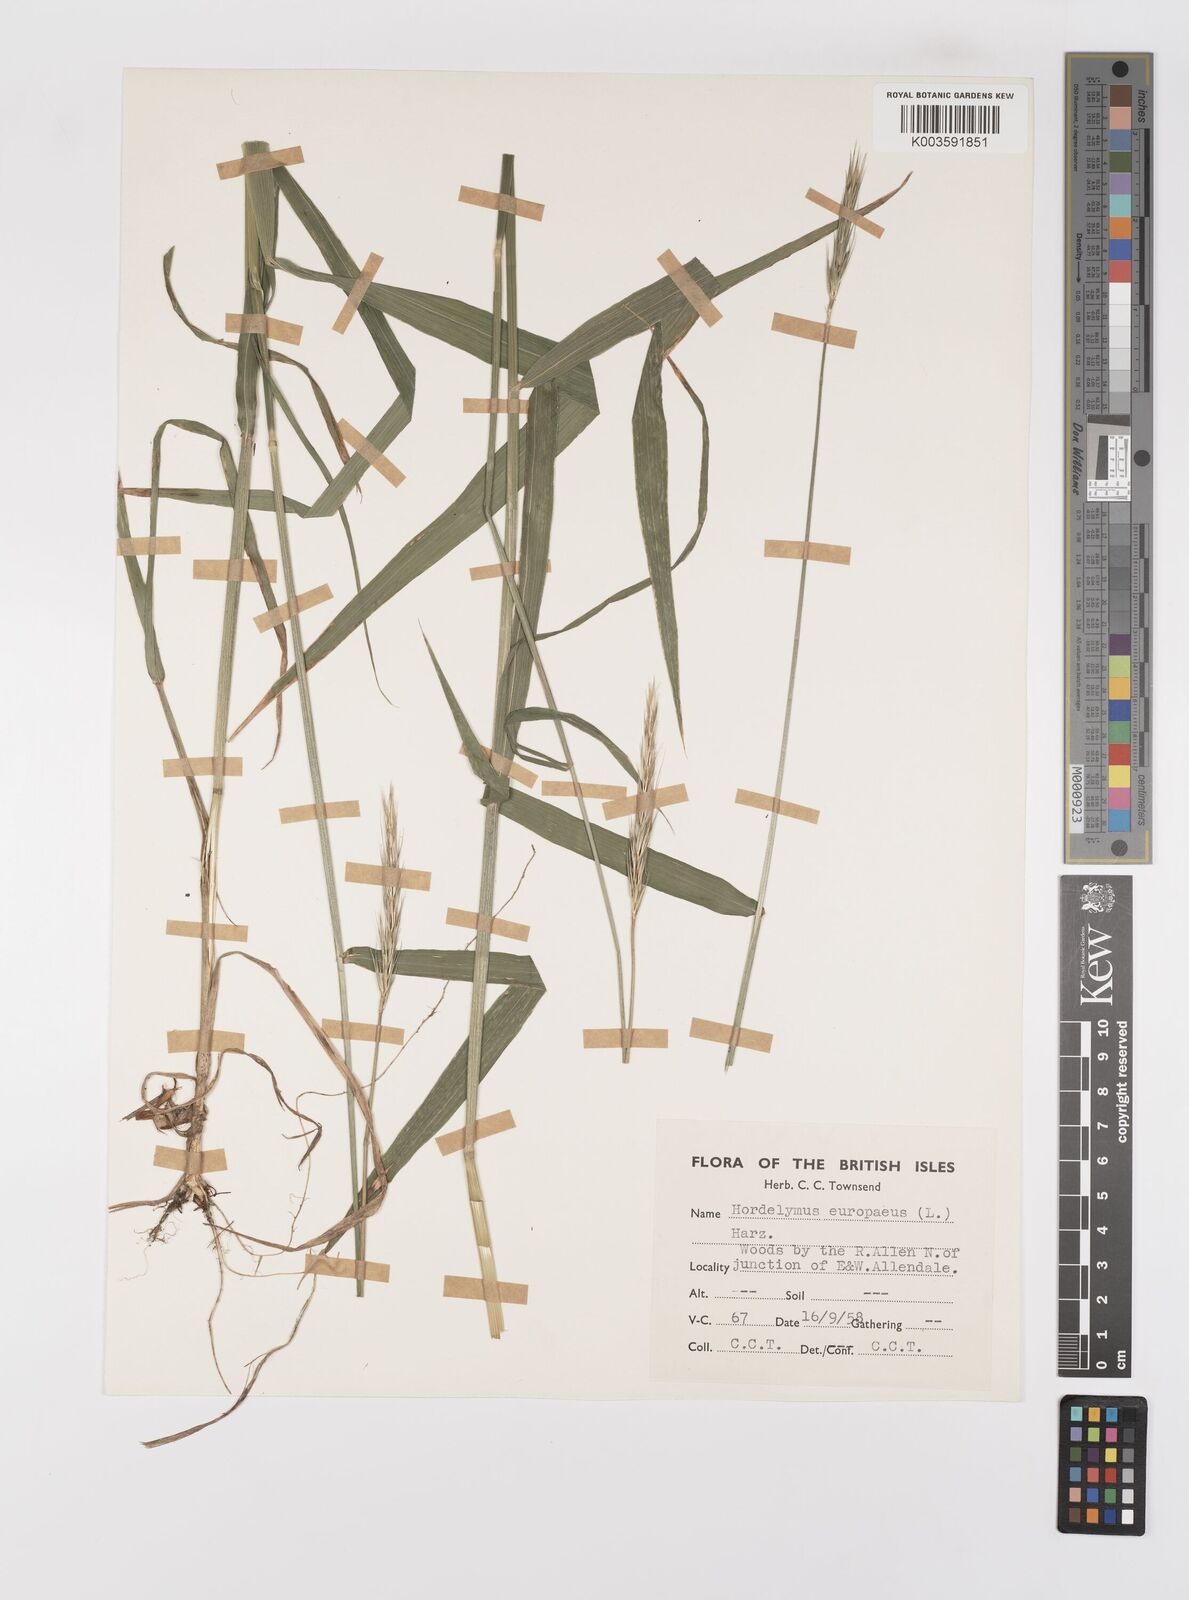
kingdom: Plantae
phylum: Tracheophyta
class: Liliopsida
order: Poales
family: Poaceae
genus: Hordelymus
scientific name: Hordelymus europaeus
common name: Wood-barley
